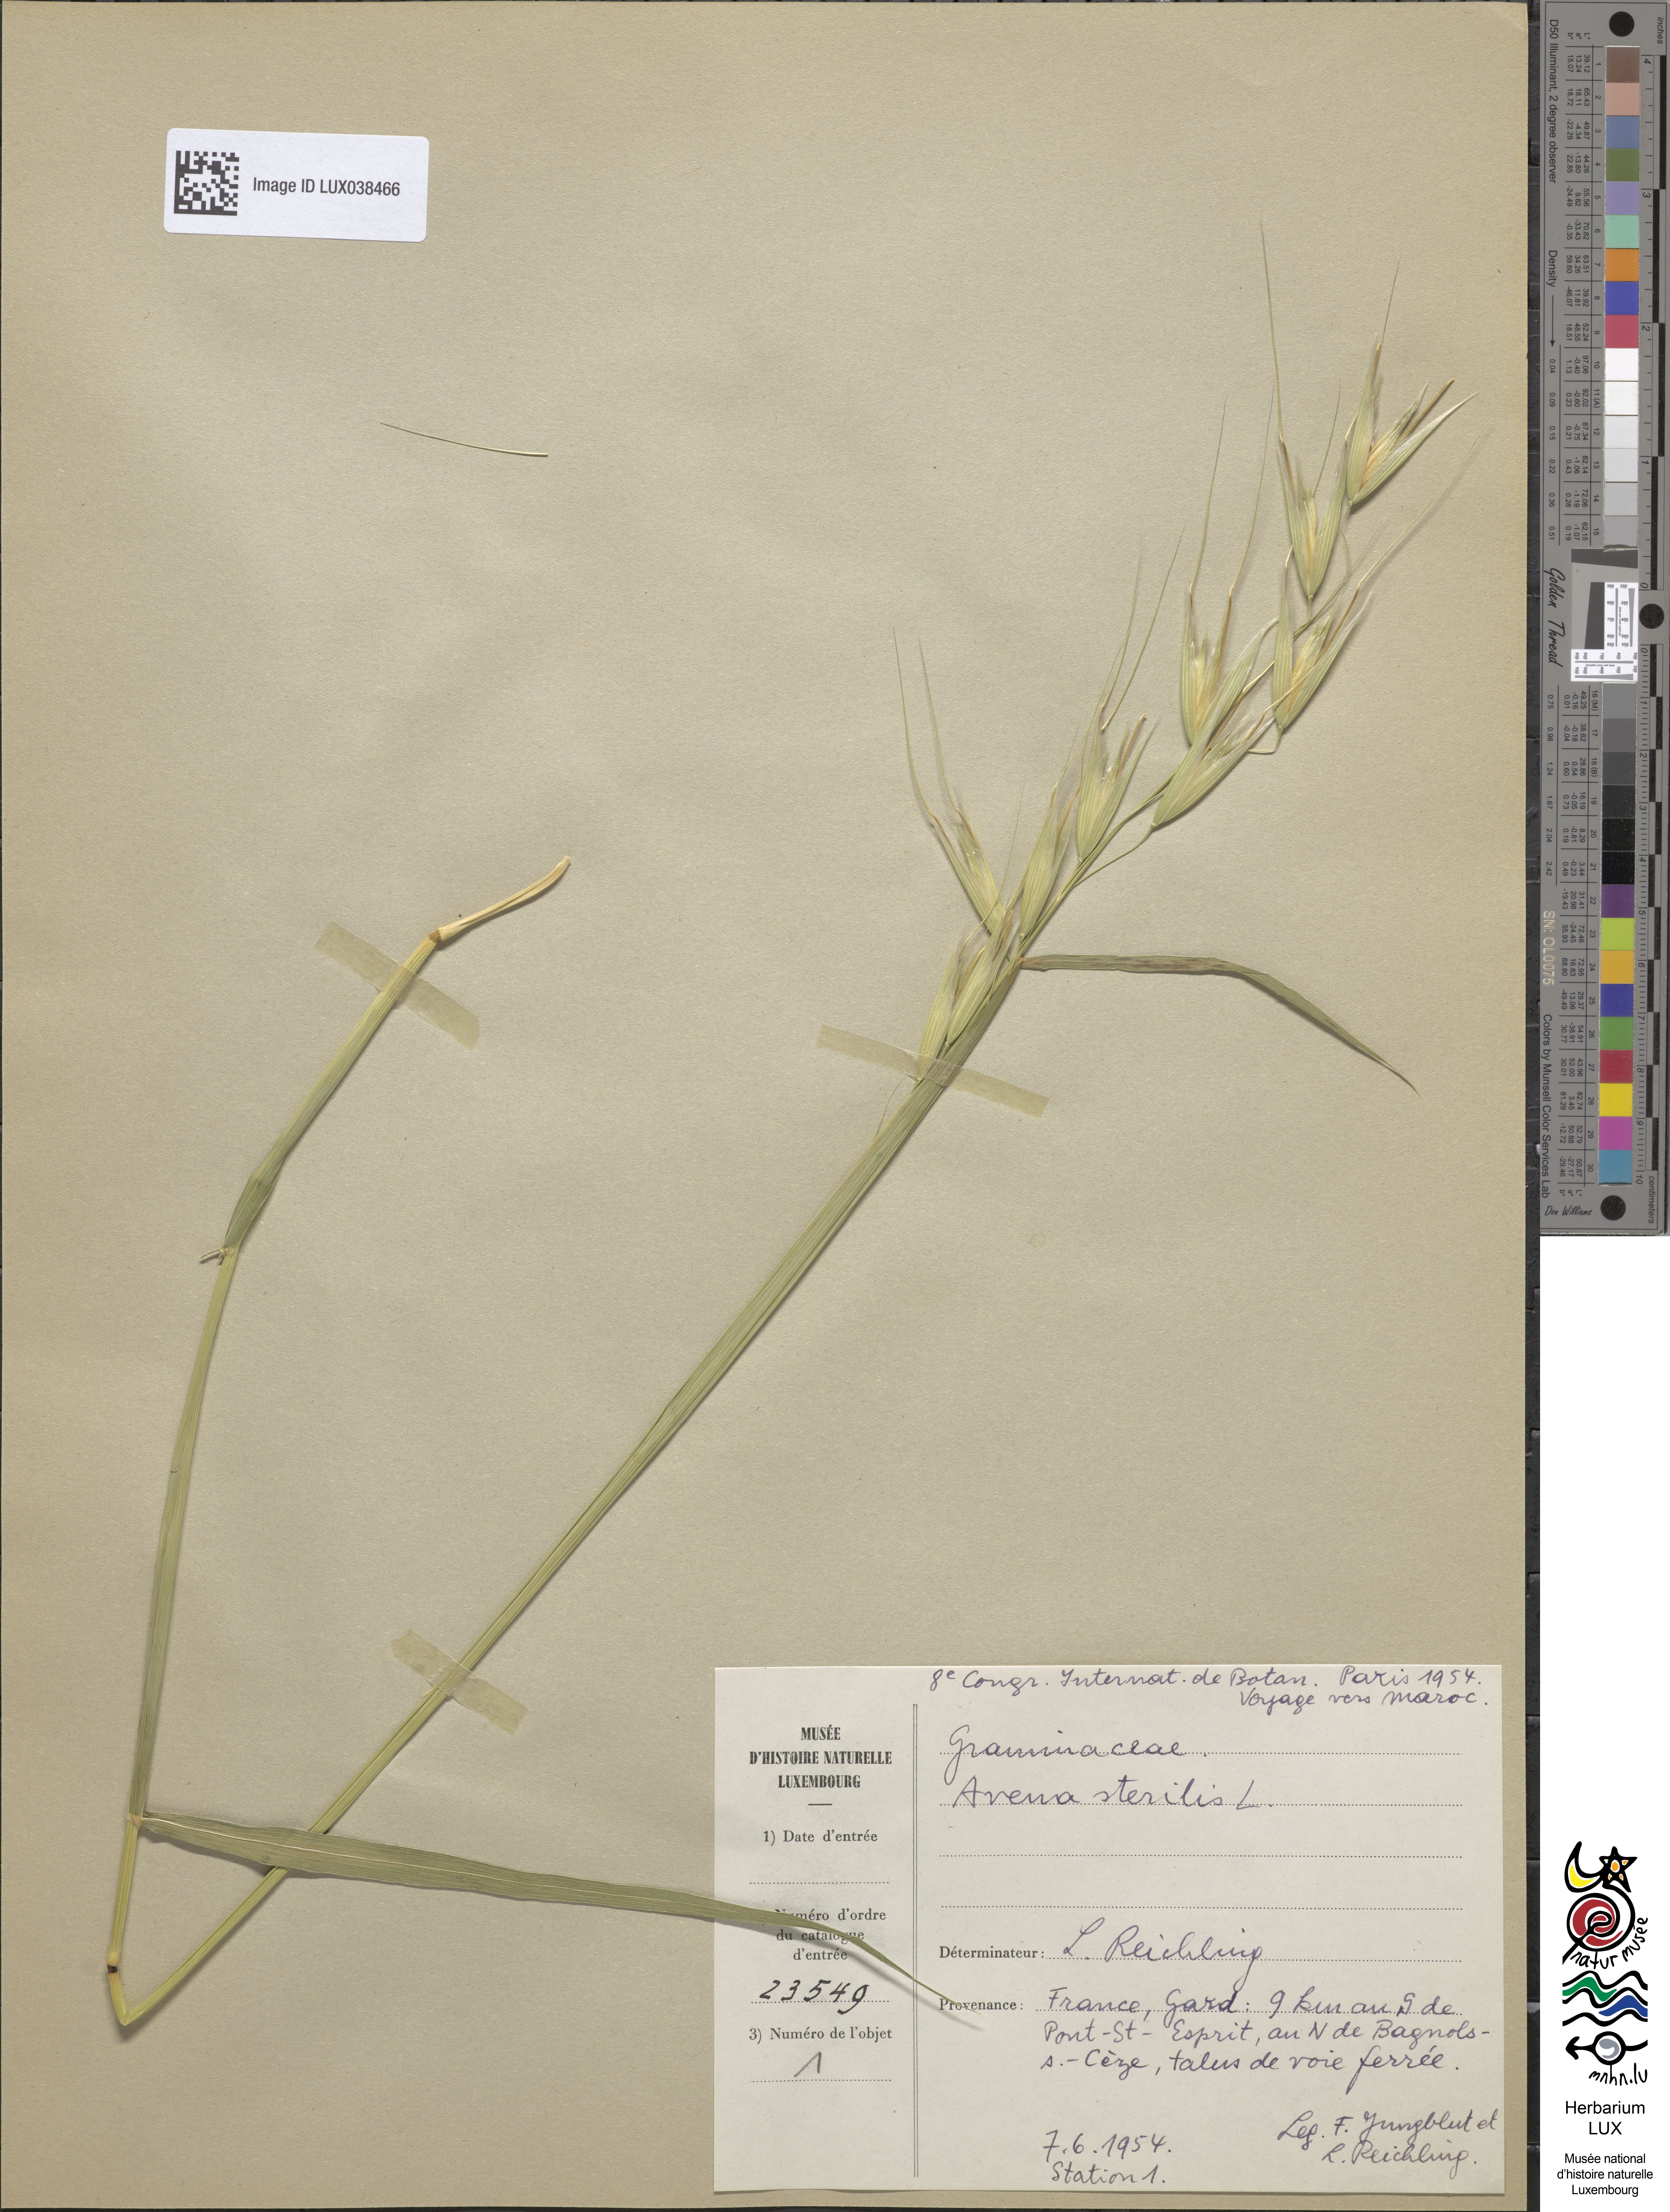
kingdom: Plantae
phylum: Tracheophyta
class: Liliopsida
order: Poales
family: Poaceae
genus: Avena
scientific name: Avena sterilis
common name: Animated oat
